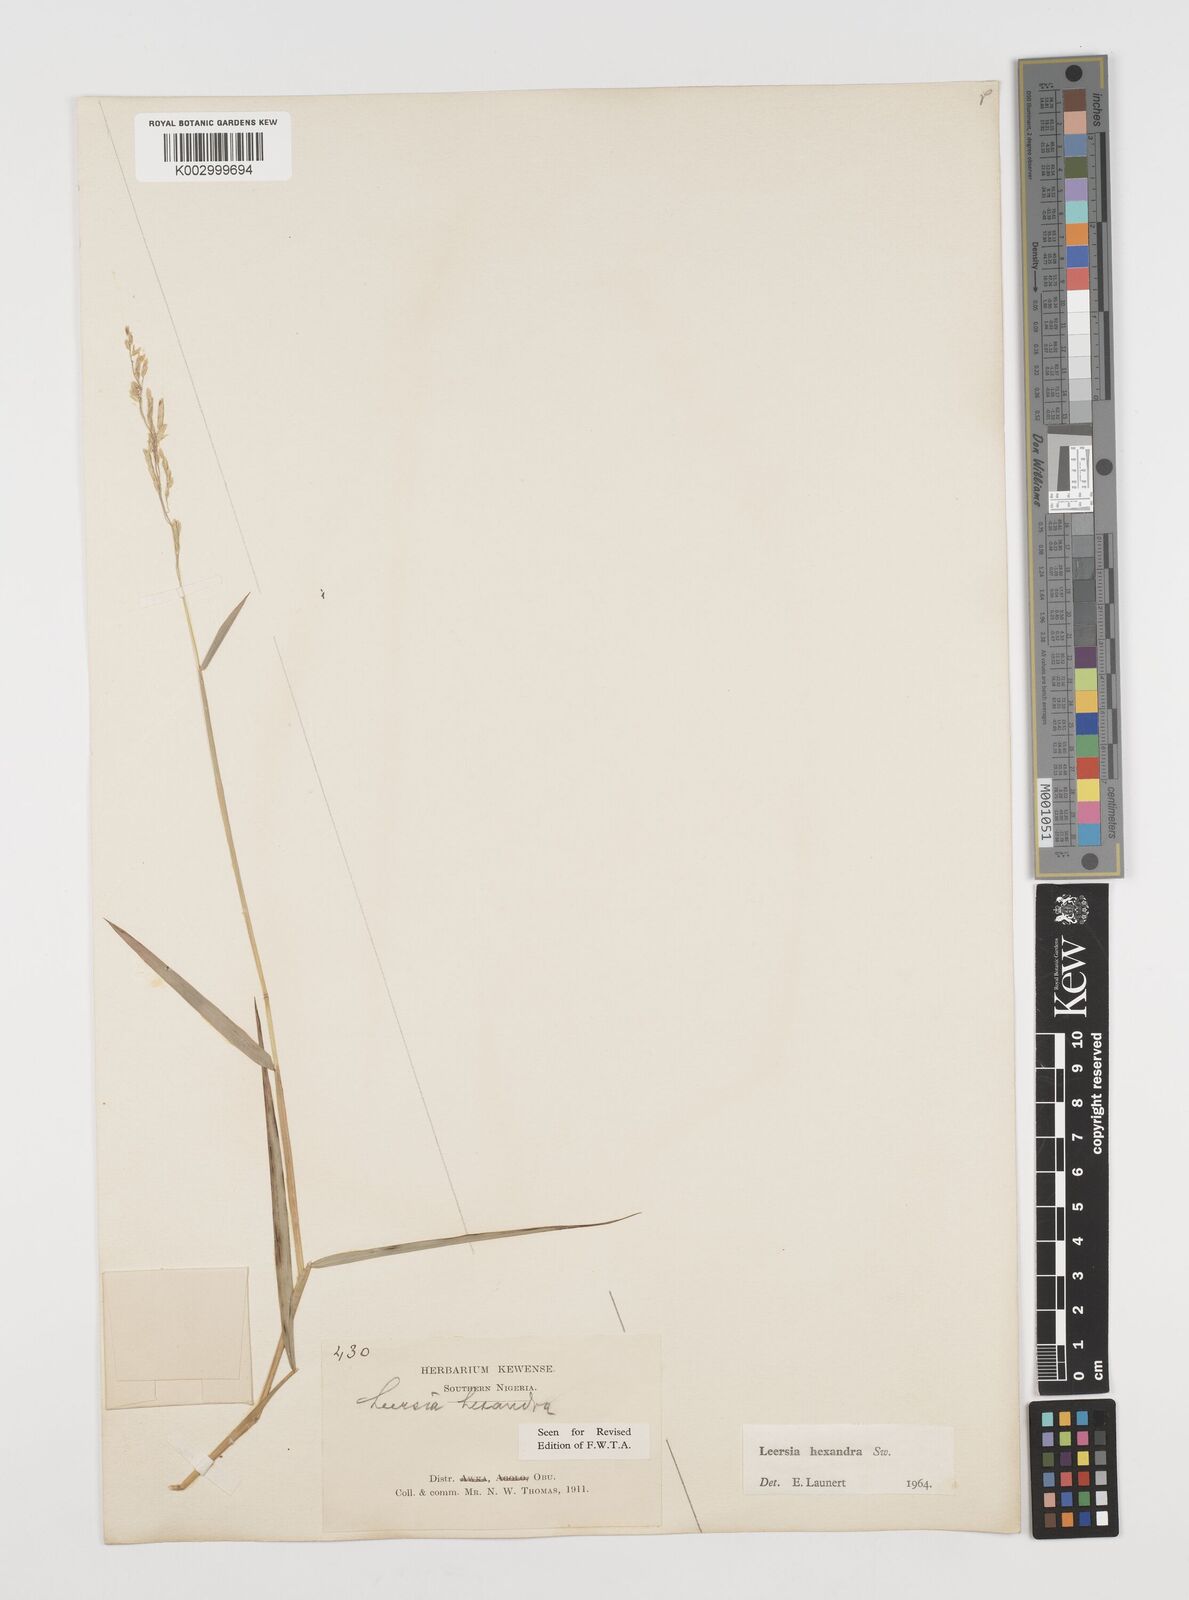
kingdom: Plantae
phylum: Tracheophyta
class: Liliopsida
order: Poales
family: Poaceae
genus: Leersia
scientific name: Leersia hexandra
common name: Southern cut grass
